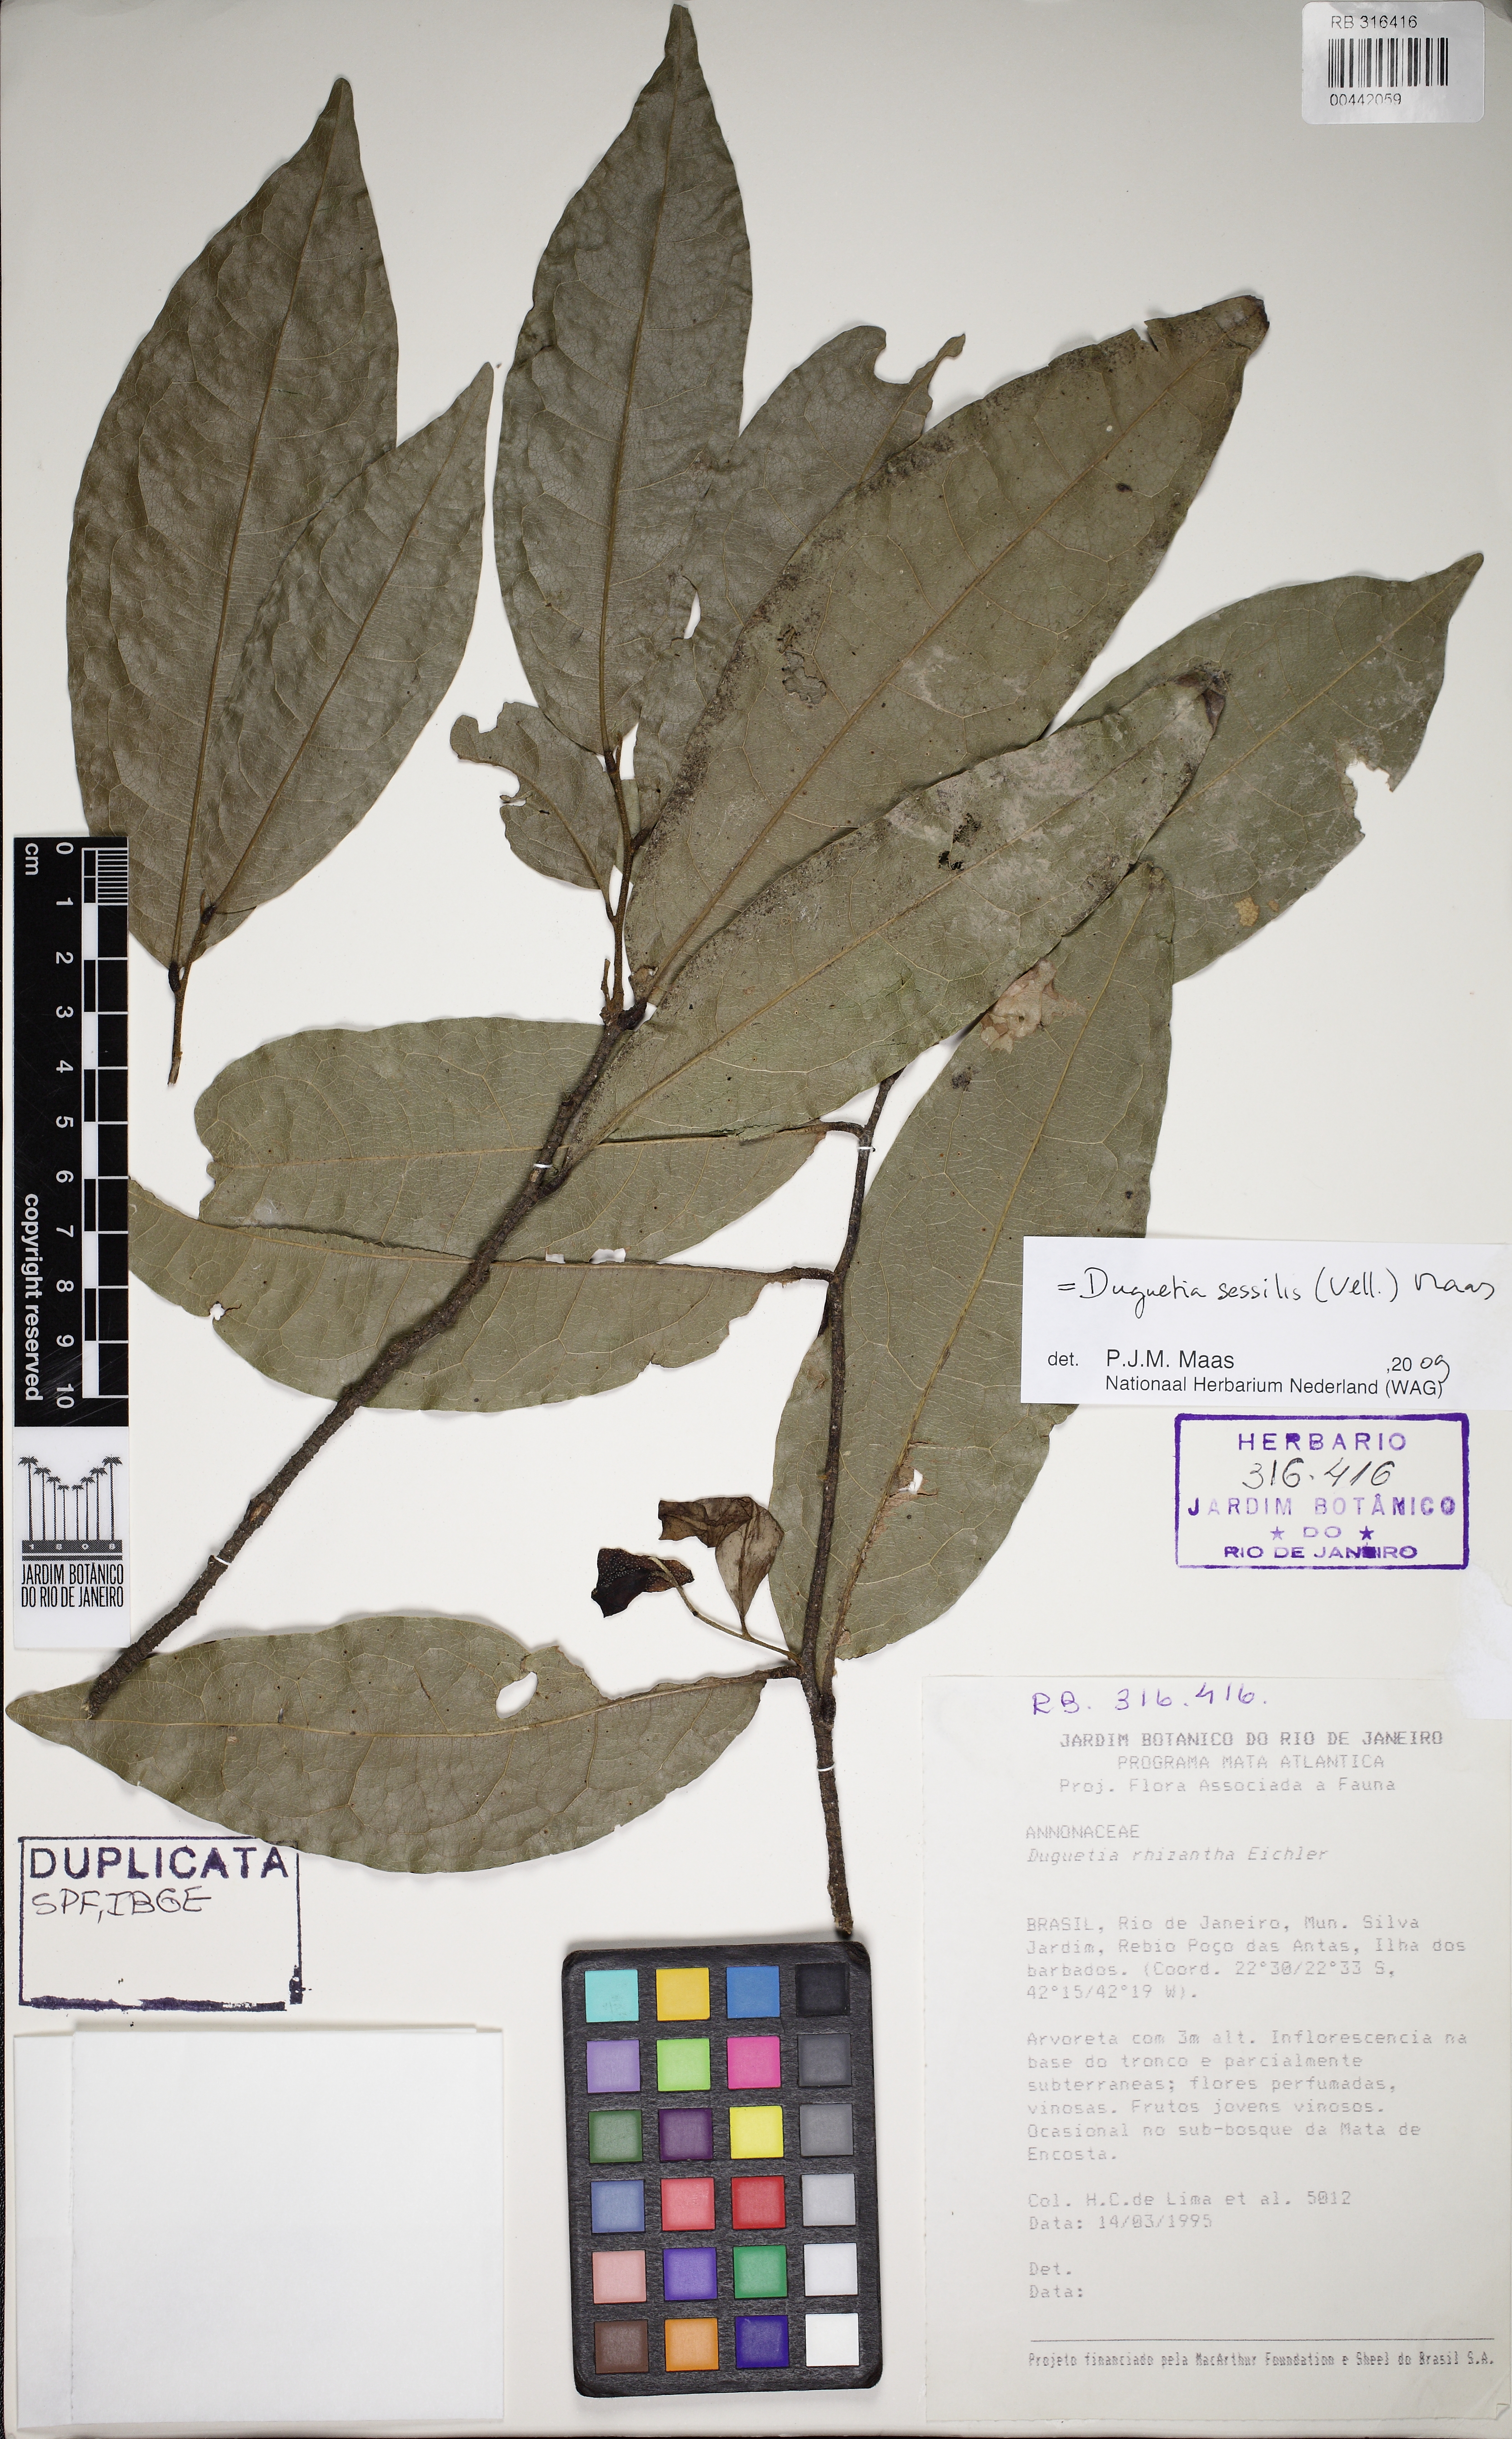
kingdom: Plantae
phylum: Tracheophyta
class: Magnoliopsida
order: Magnoliales
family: Annonaceae
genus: Duguetia
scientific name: Duguetia sessilis
